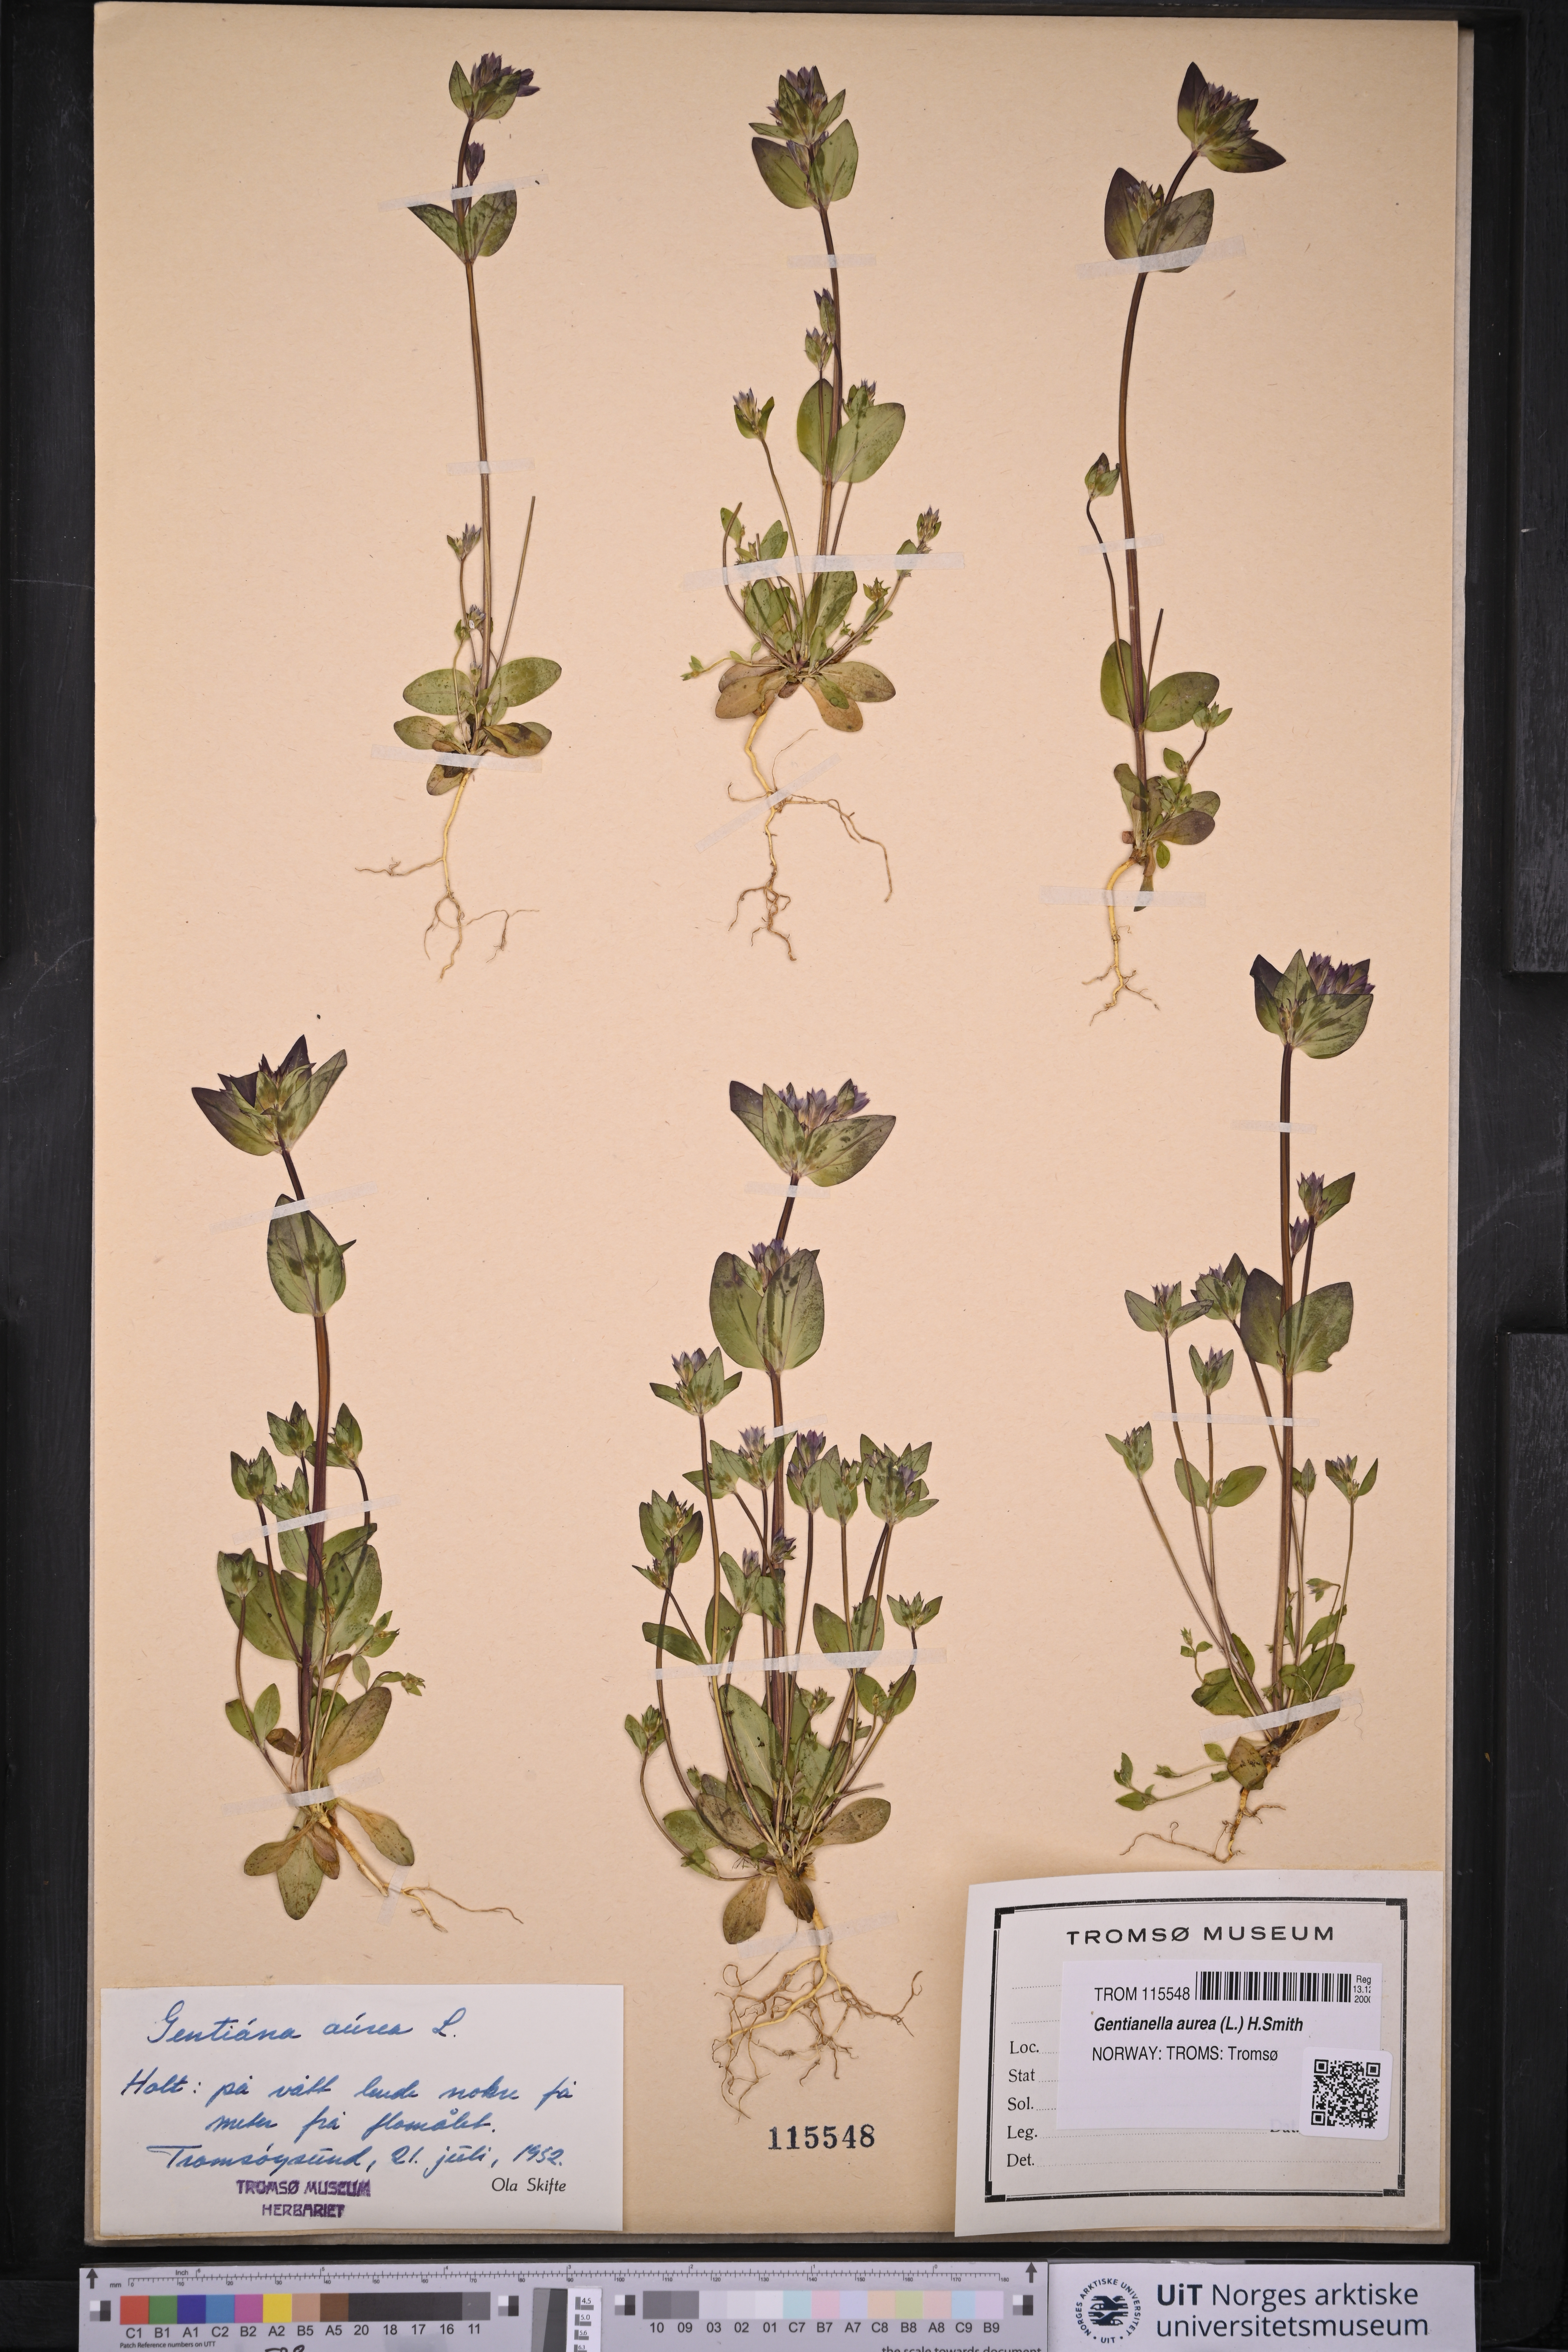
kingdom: Plantae
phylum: Tracheophyta
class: Magnoliopsida
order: Gentianales
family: Gentianaceae
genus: Gentianella
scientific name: Gentianella aurea
